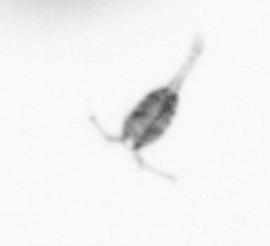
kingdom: Animalia
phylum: Arthropoda
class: Copepoda
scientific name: Copepoda
